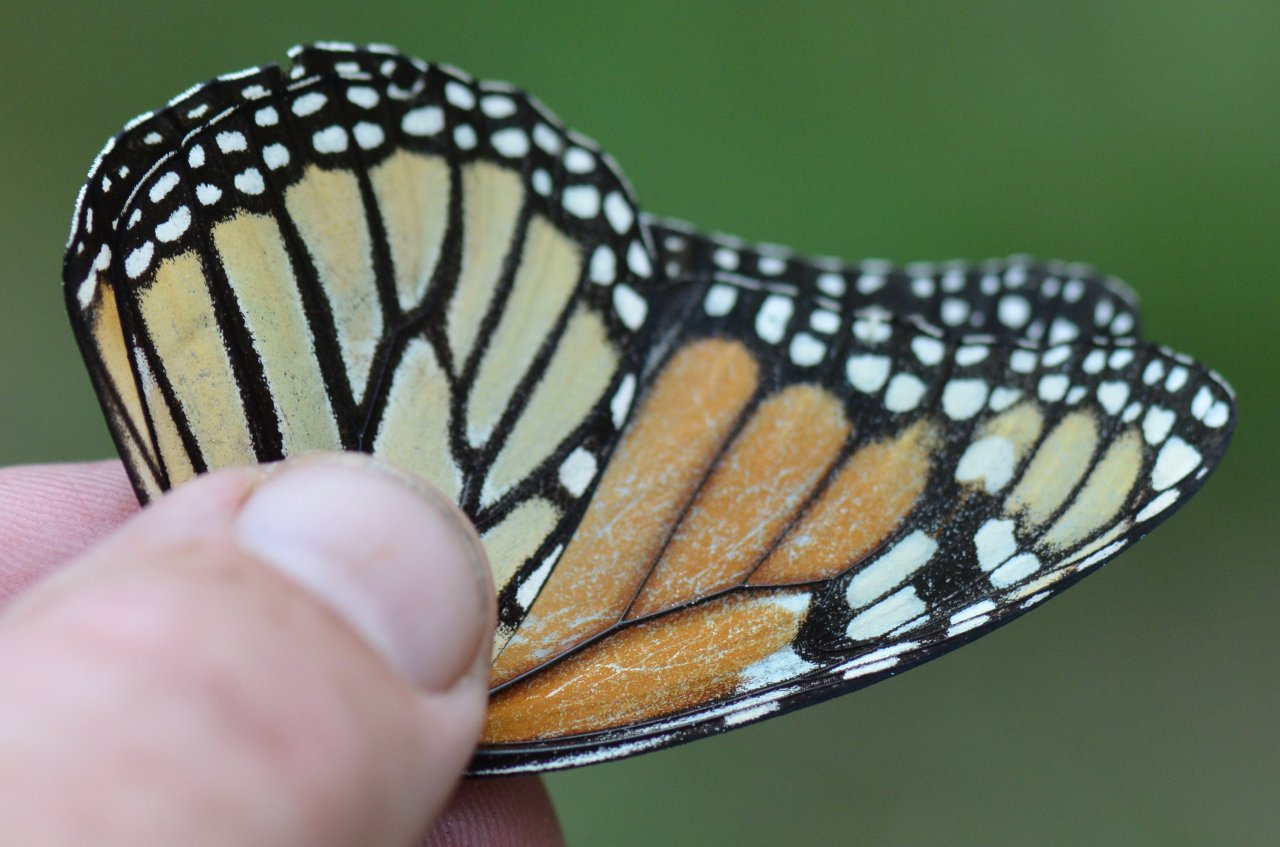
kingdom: Animalia
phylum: Arthropoda
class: Insecta
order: Lepidoptera
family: Nymphalidae
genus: Danaus
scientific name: Danaus plexippus
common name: Monarch
